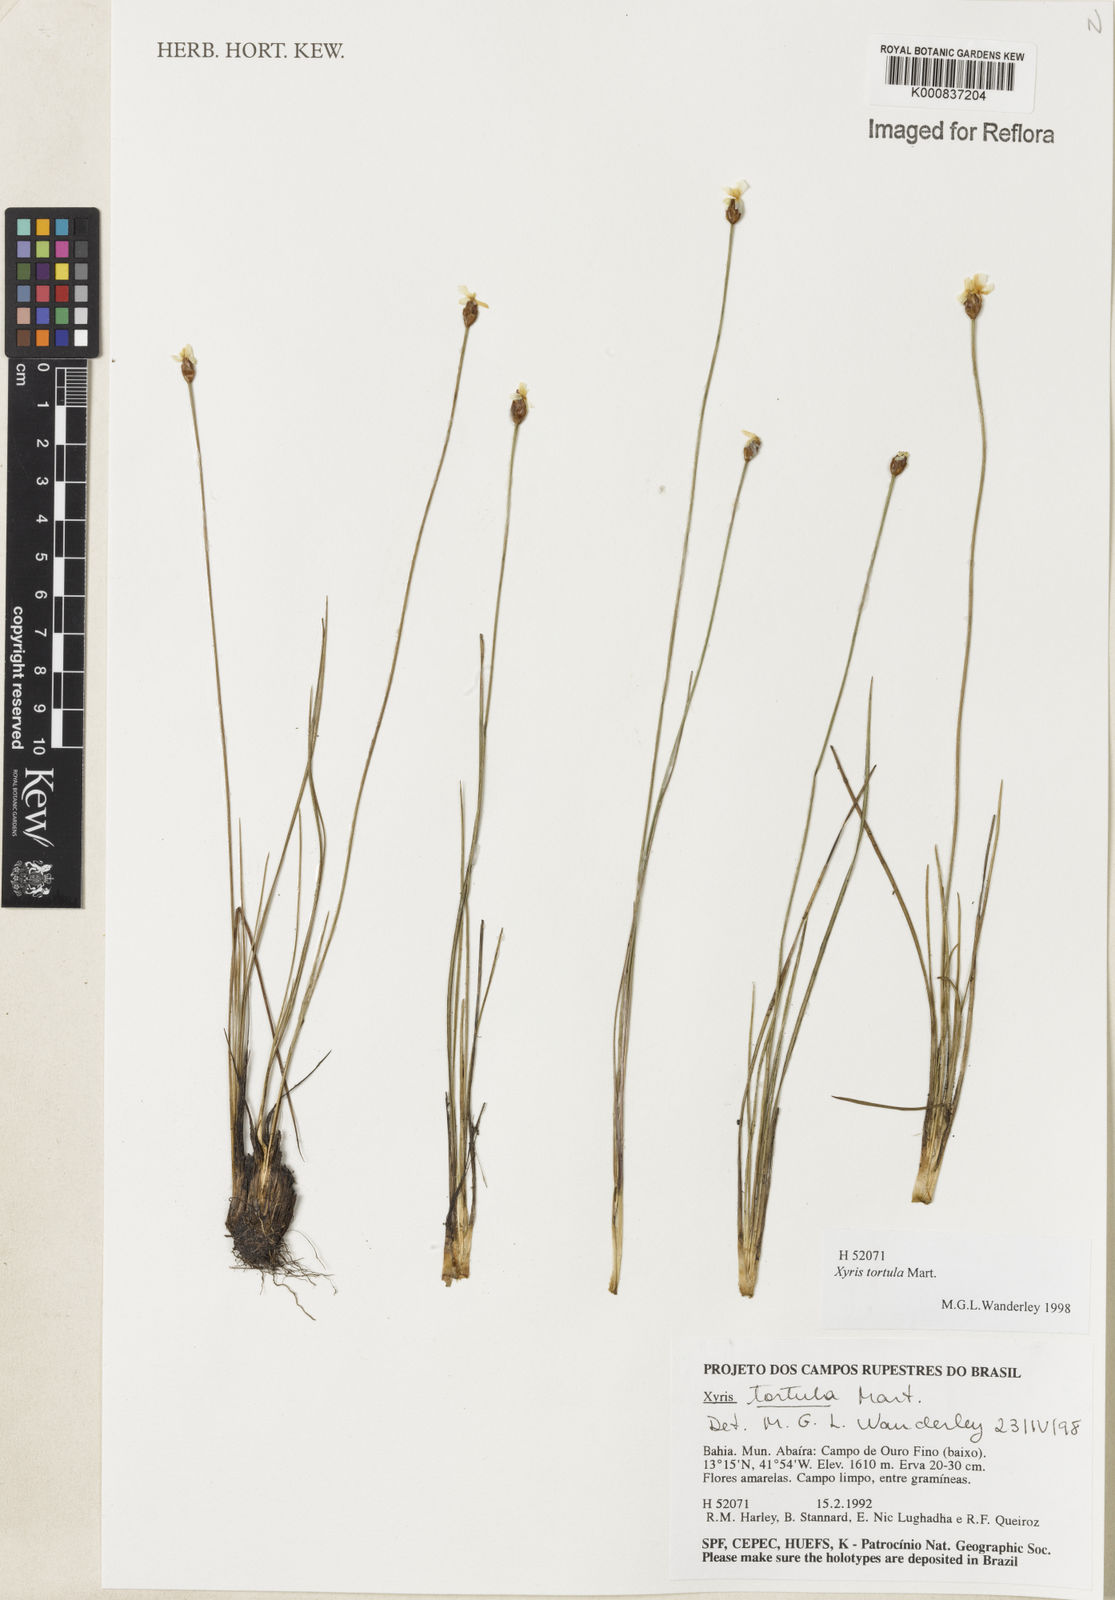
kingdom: Plantae
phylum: Tracheophyta
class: Liliopsida
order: Poales
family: Xyridaceae
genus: Xyris
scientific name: Xyris tortula
